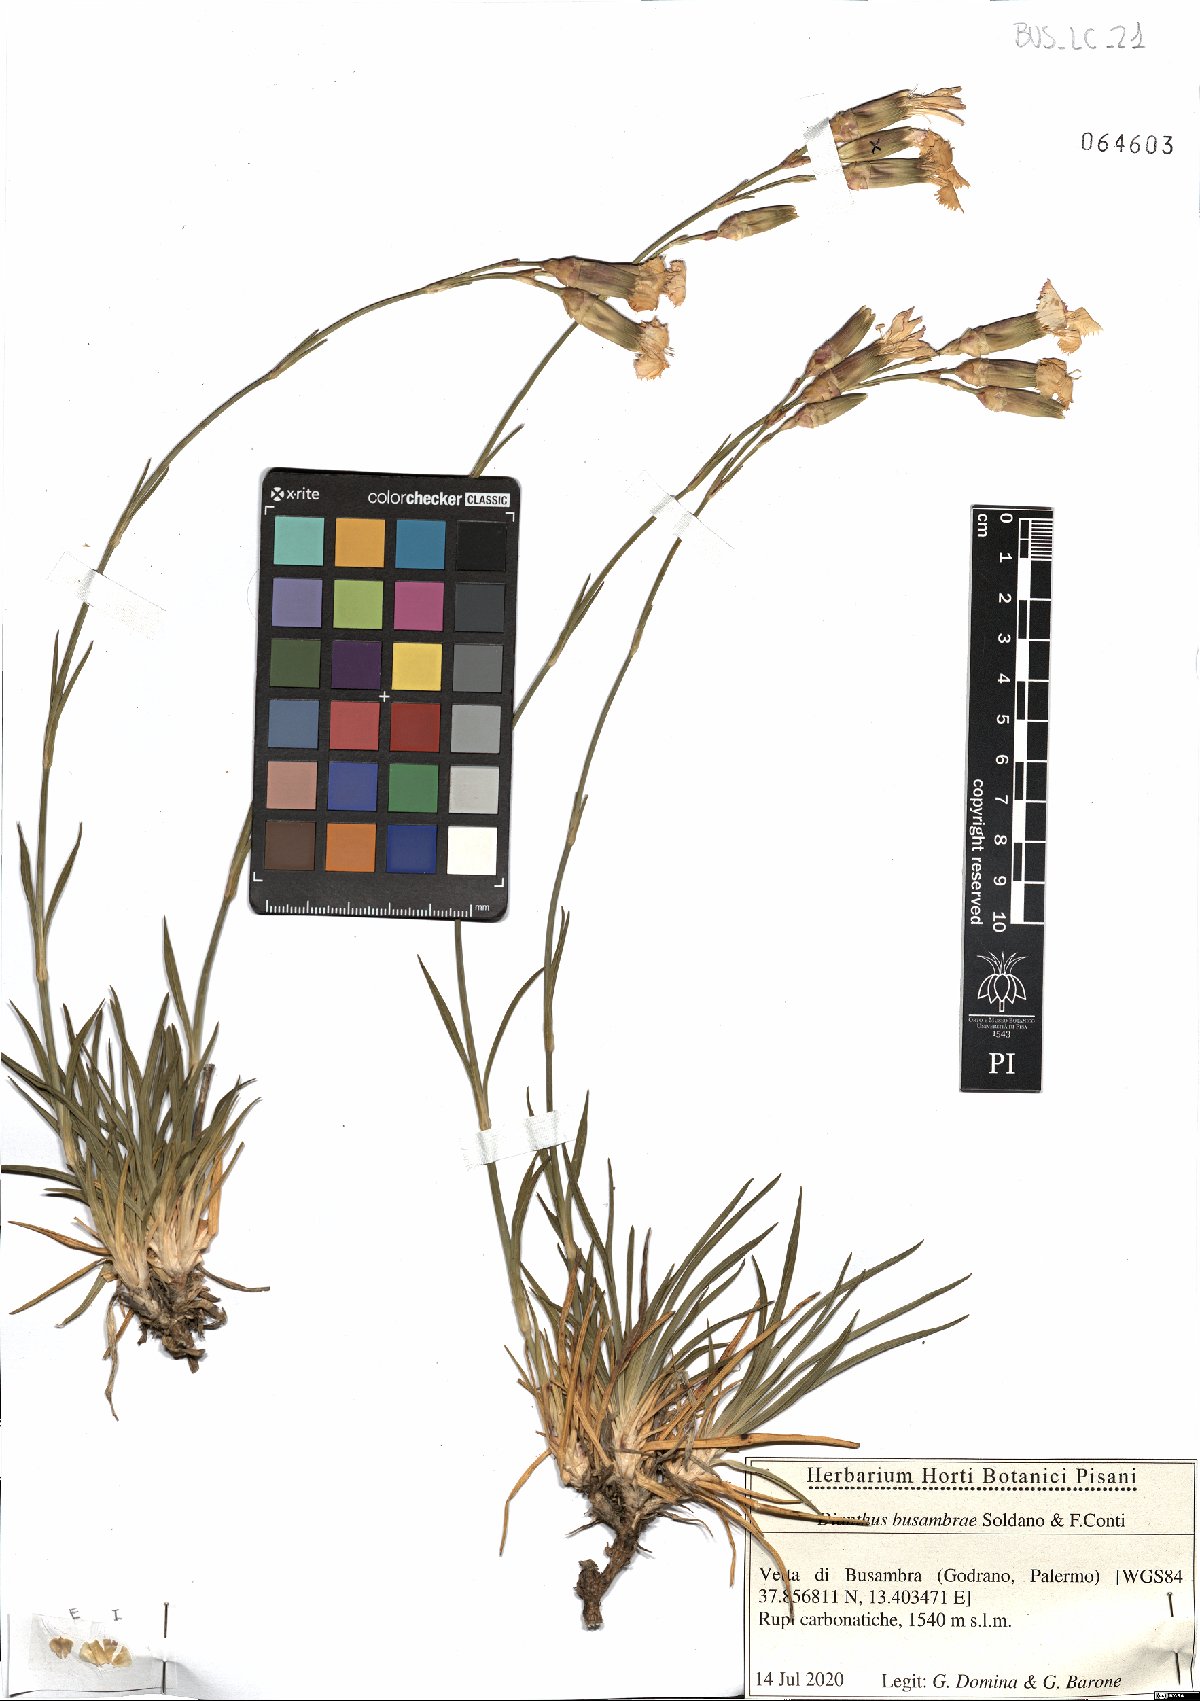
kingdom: Plantae
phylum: Tracheophyta
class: Magnoliopsida
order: Caryophyllales
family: Caryophyllaceae
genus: Dianthus
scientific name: Dianthus busambrae
